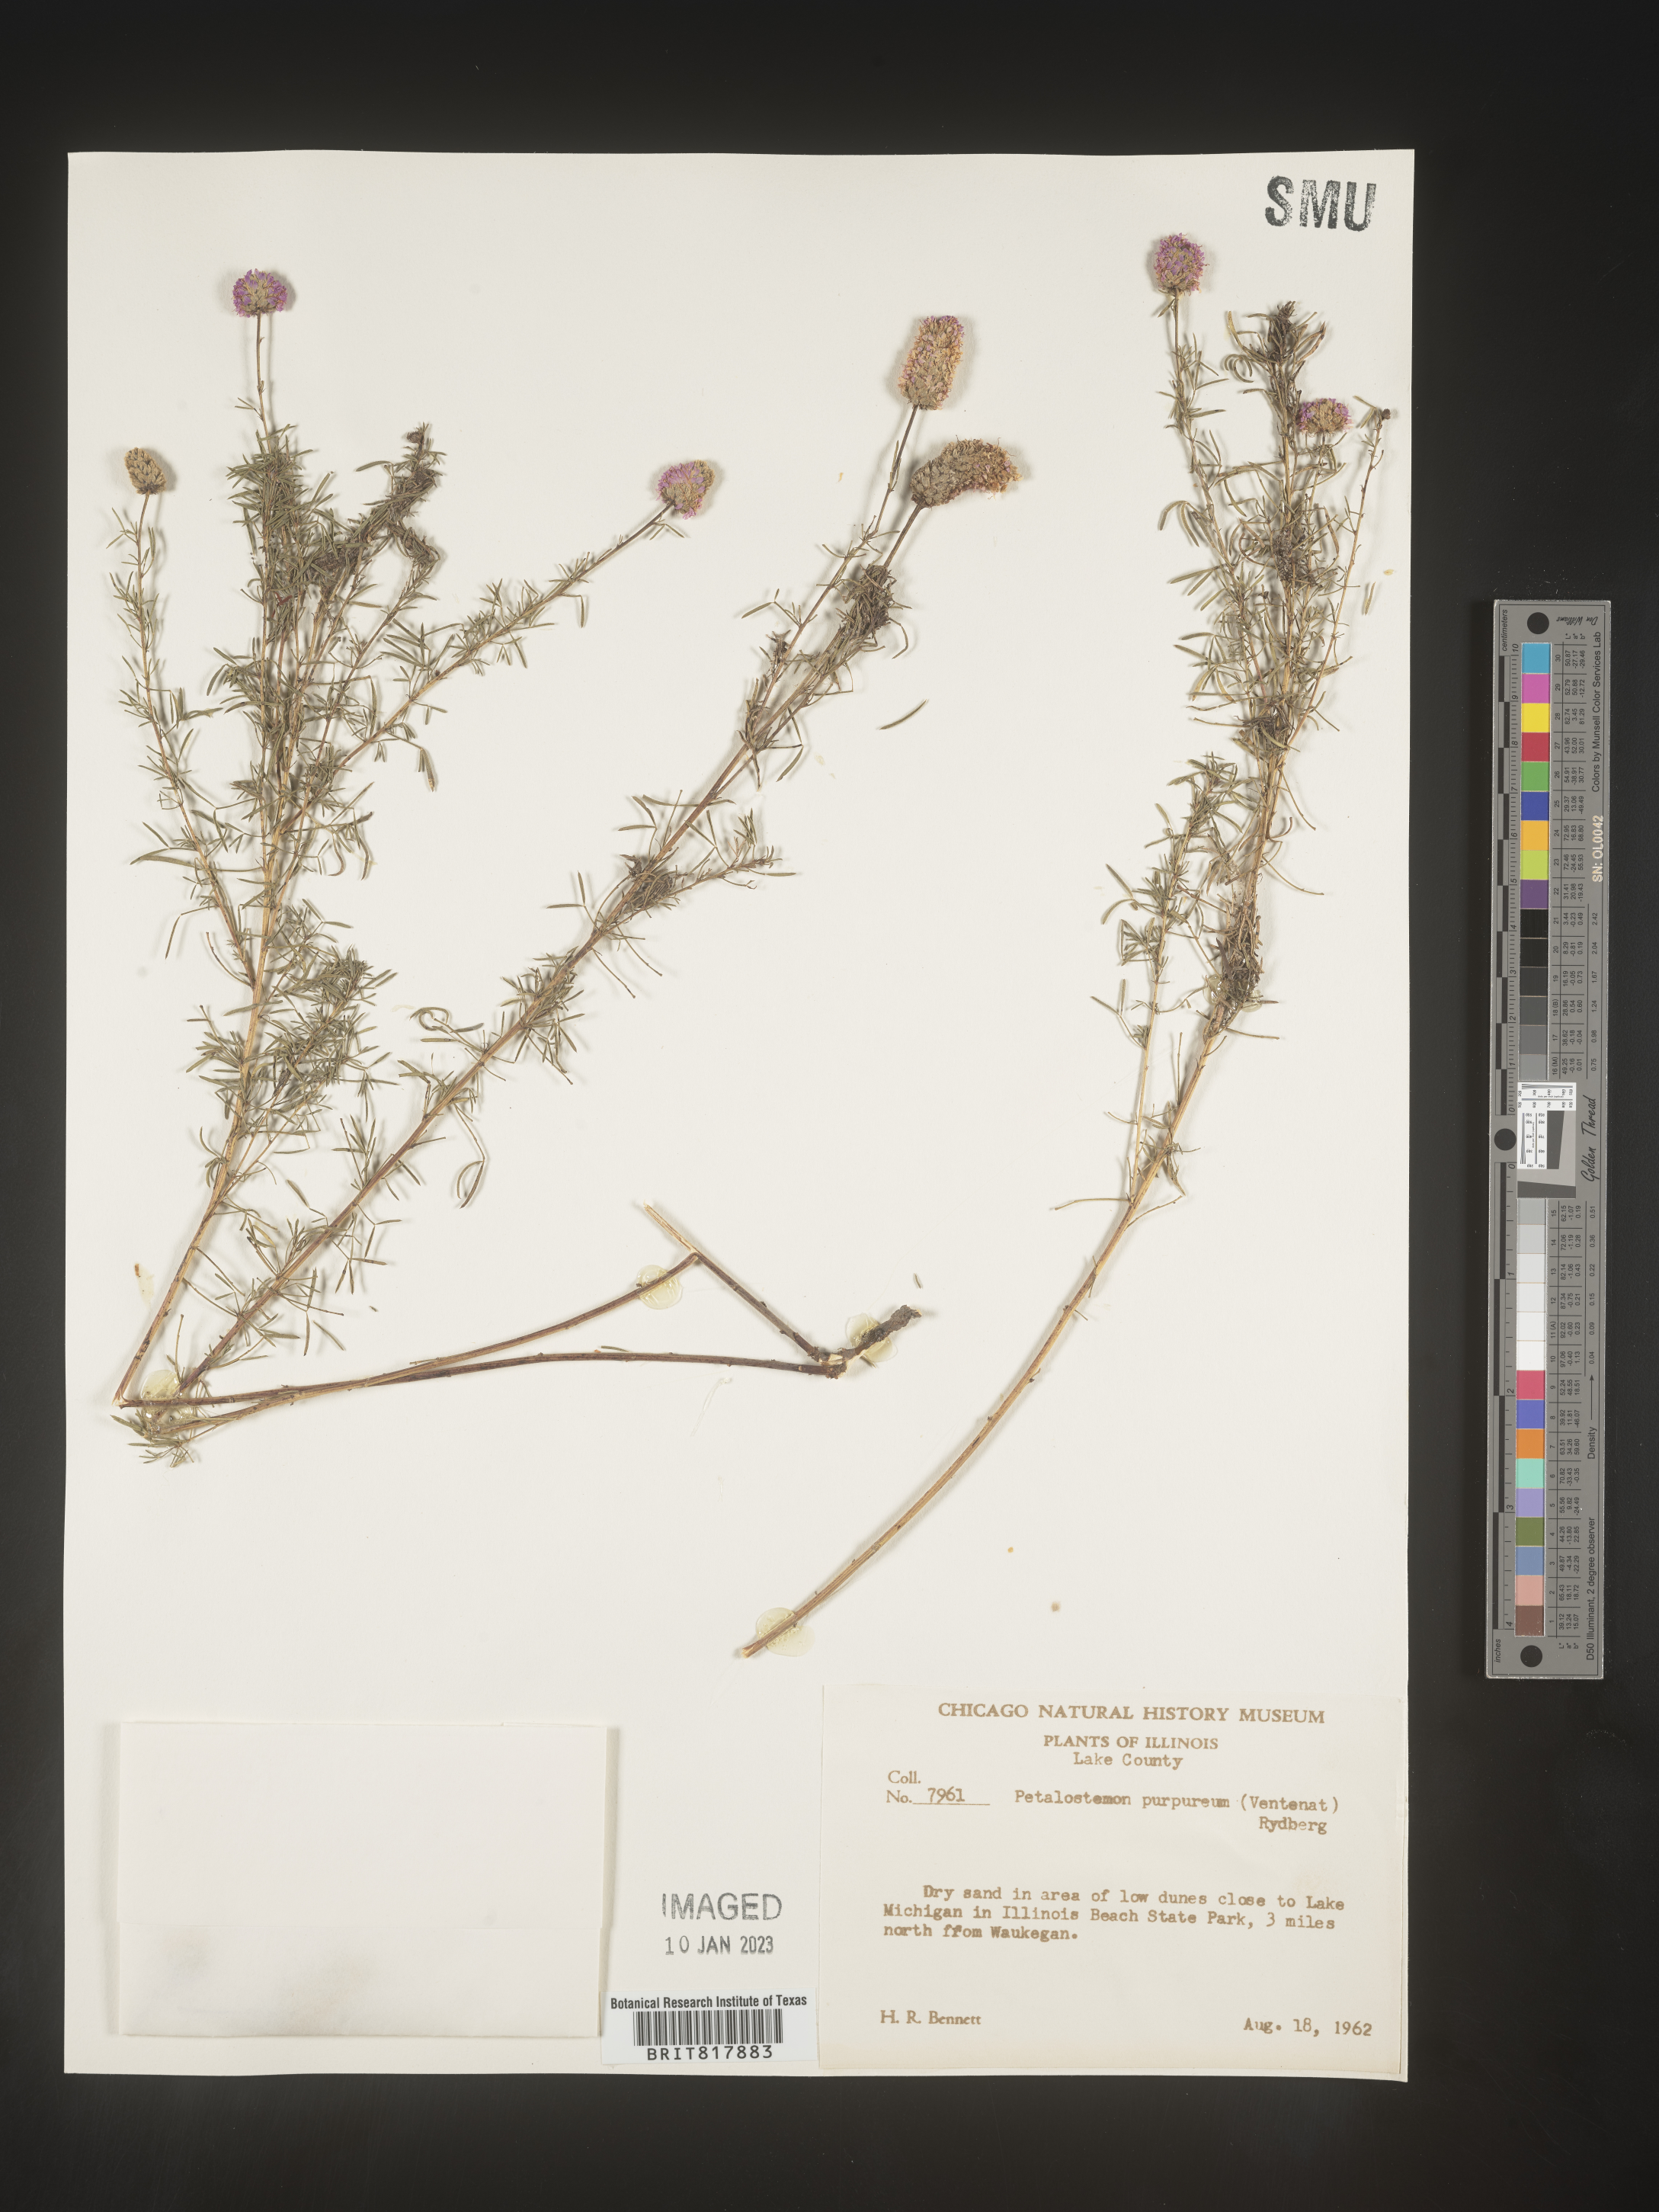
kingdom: Plantae
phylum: Tracheophyta
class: Magnoliopsida
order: Fabales
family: Fabaceae
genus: Dalea
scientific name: Dalea purpurea
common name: Purple prairie-clover
